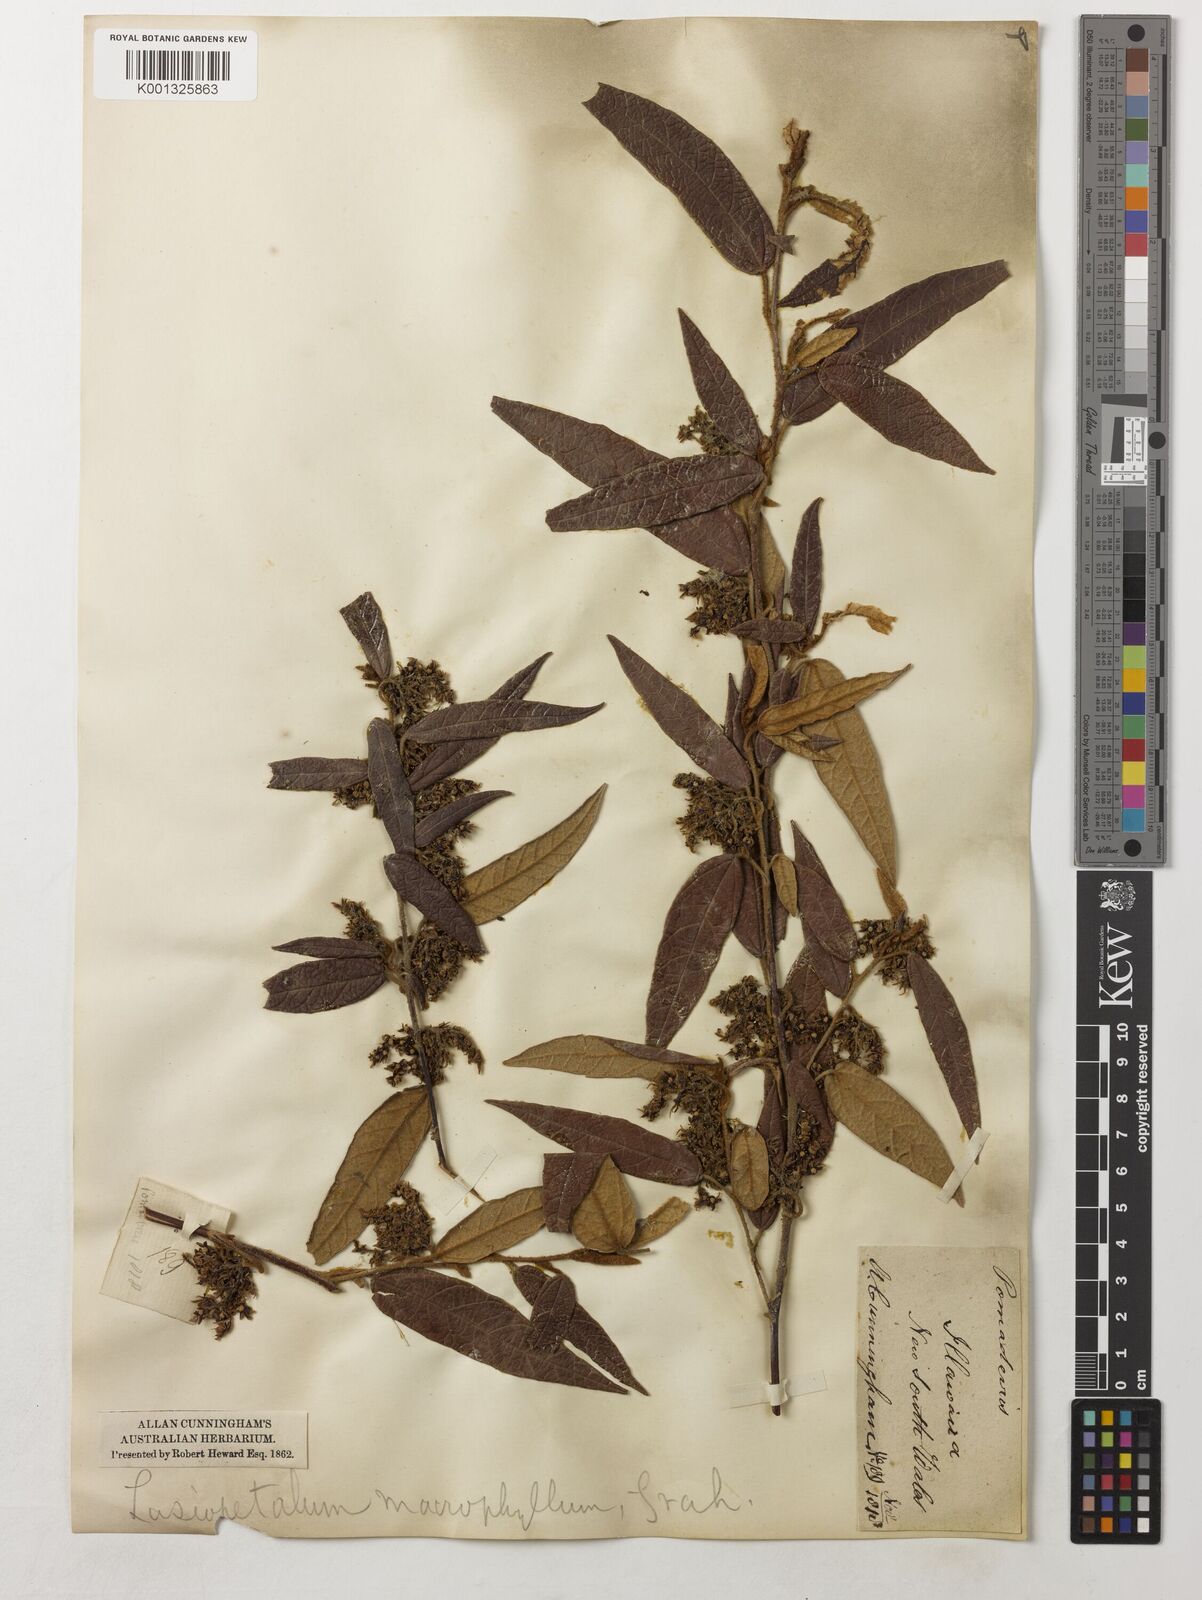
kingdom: Plantae
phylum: Tracheophyta
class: Magnoliopsida
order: Malvales
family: Malvaceae
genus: Lasiopetalum
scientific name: Lasiopetalum macrophyllum
